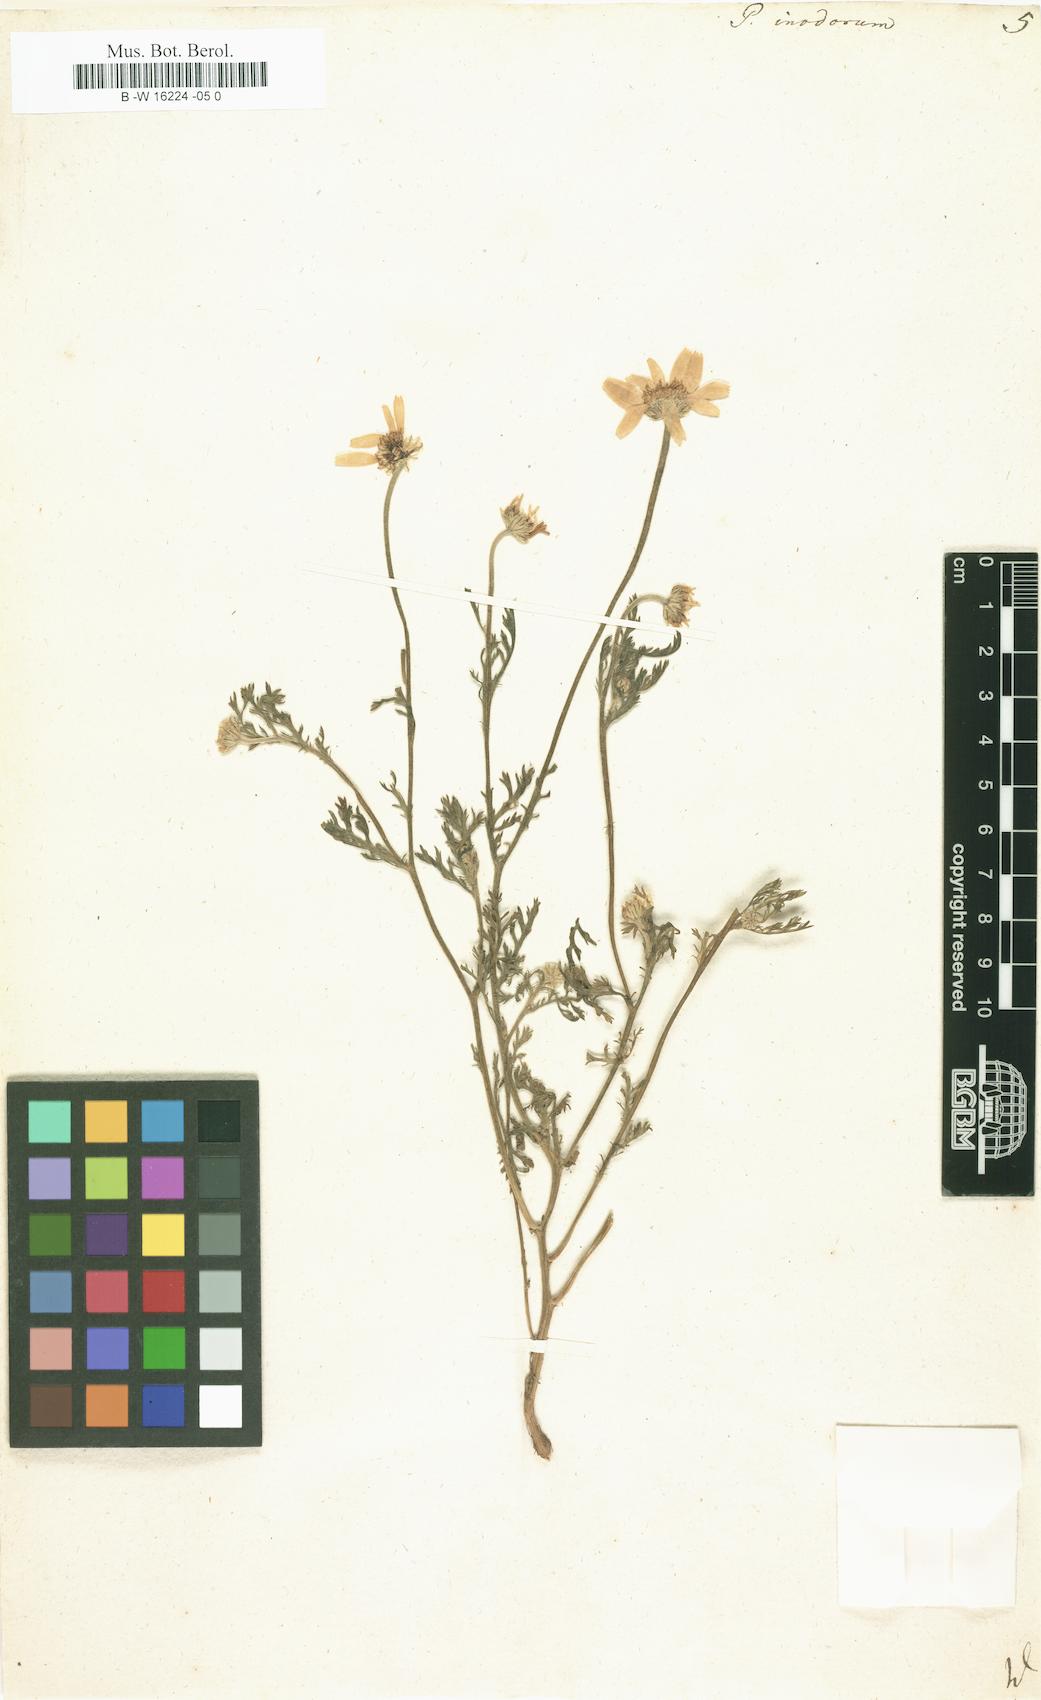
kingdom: Plantae
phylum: Tracheophyta
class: Magnoliopsida
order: Asterales
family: Asteraceae
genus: Tripleurospermum
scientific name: Tripleurospermum inodorum
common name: Scentless mayweed
